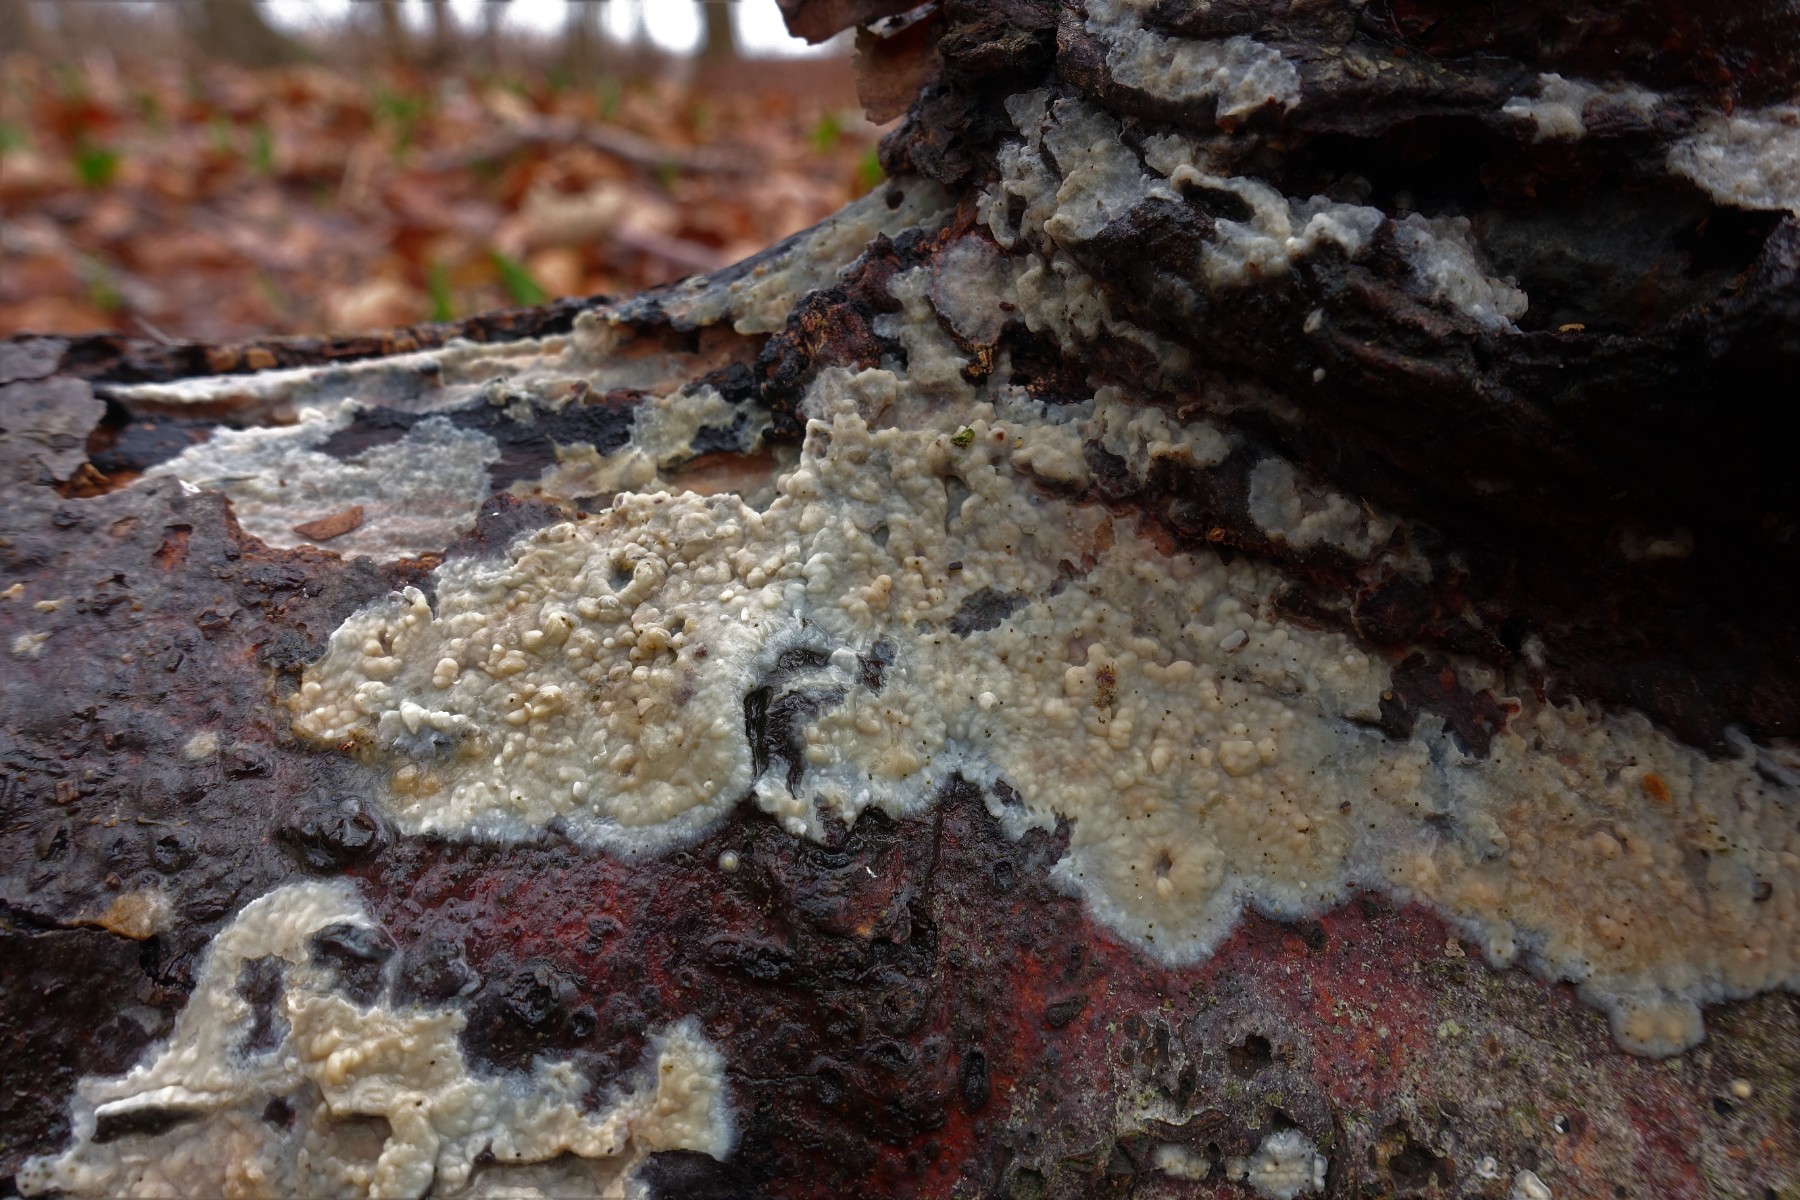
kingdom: Fungi
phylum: Basidiomycota
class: Agaricomycetes
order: Agaricales
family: Radulomycetaceae
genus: Radulomyces
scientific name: Radulomyces confluens
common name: glat naftalinskind
